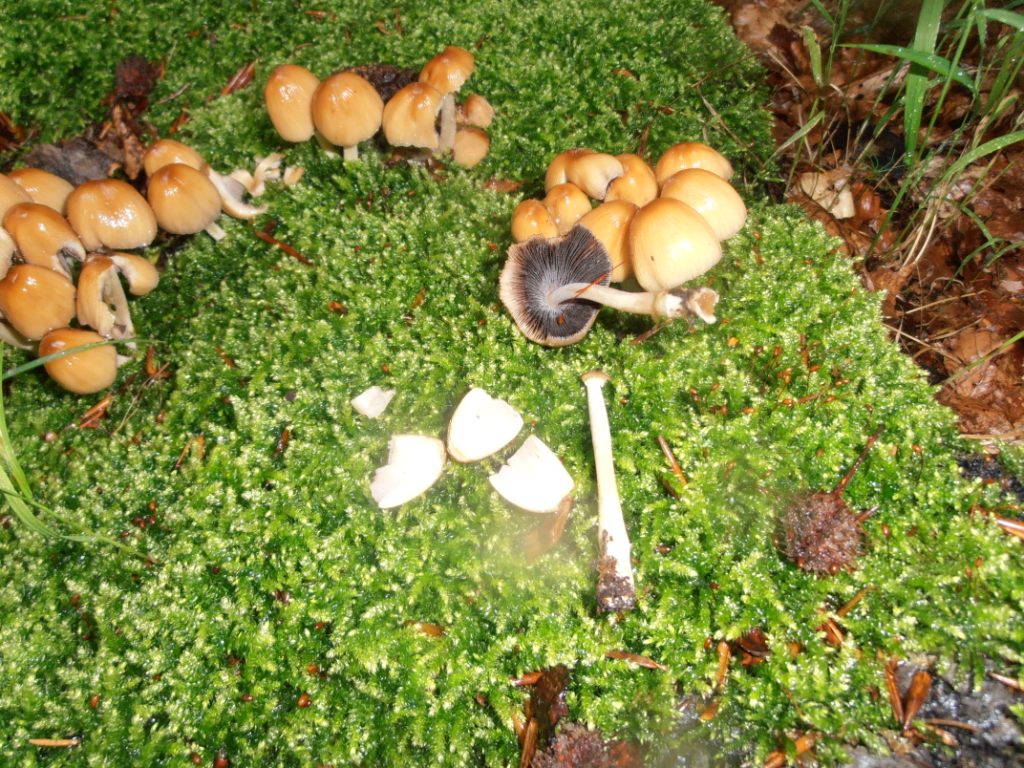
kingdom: Fungi
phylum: Basidiomycota
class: Agaricomycetes
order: Agaricales
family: Psathyrellaceae
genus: Coprinellus
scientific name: Coprinellus micaceus
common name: glimmer-blækhat
